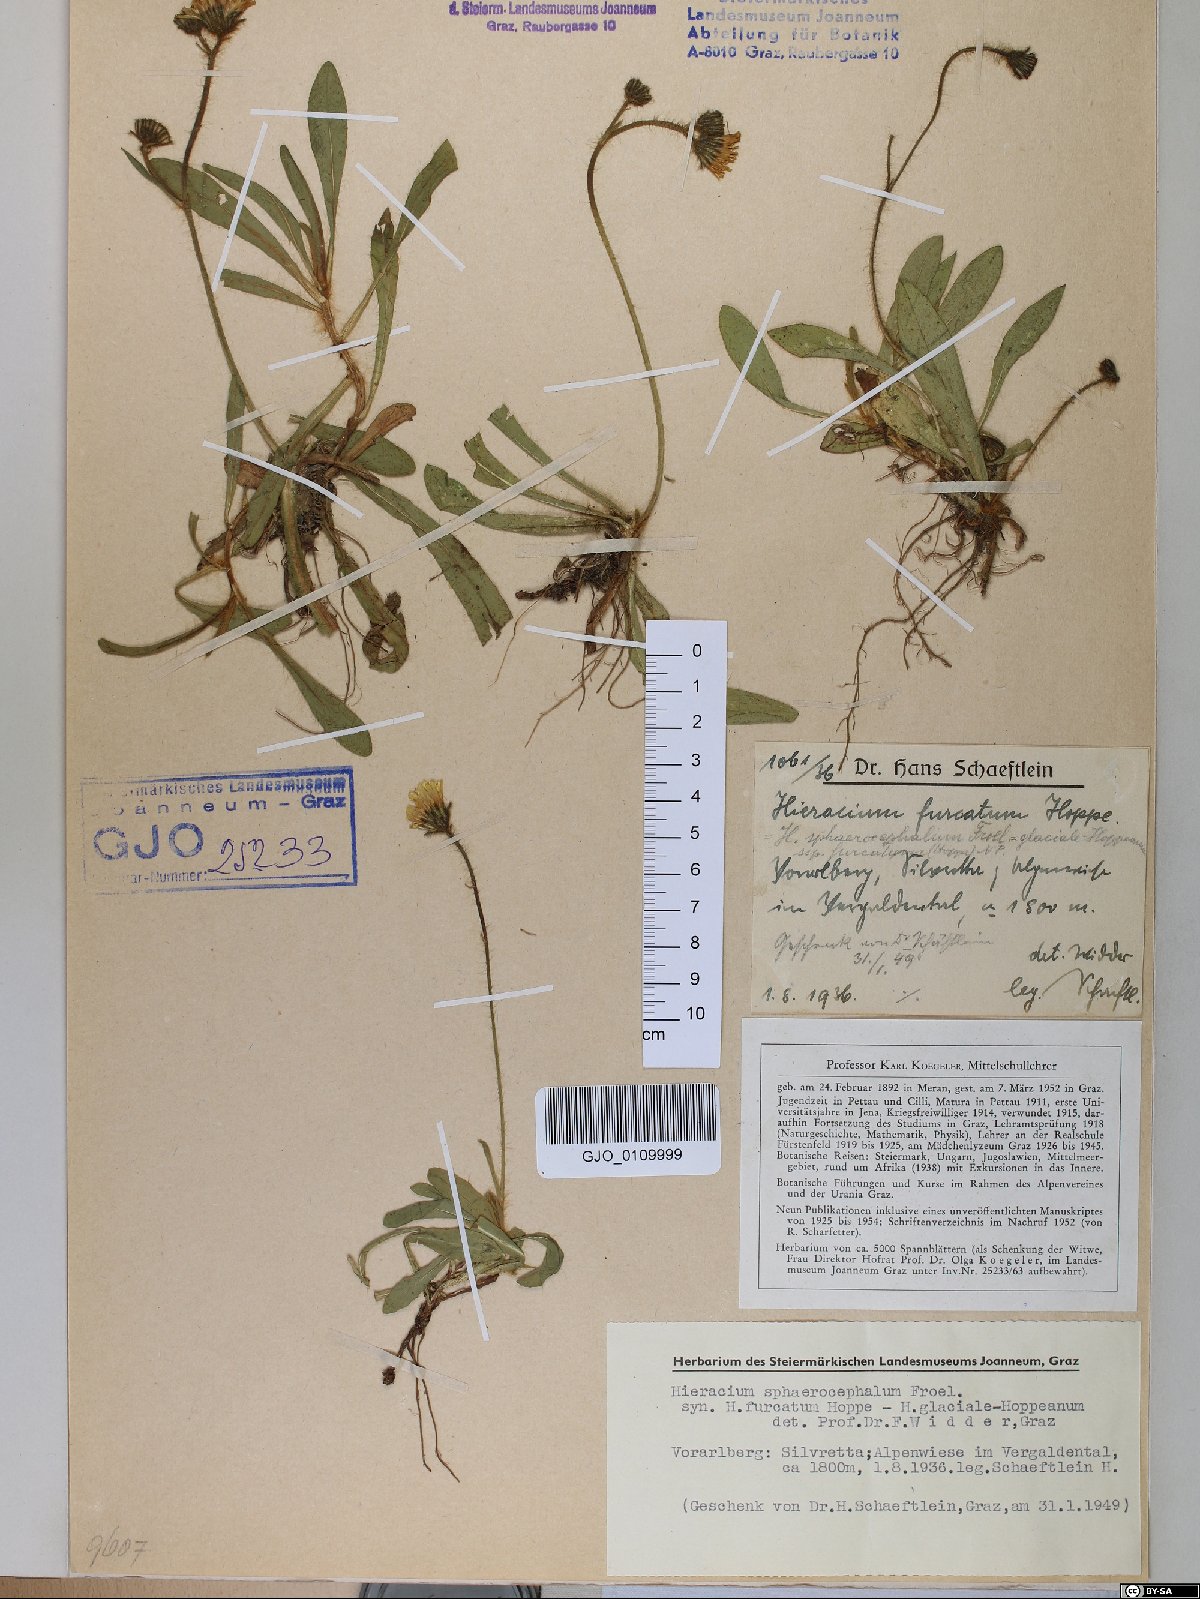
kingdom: Plantae
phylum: Tracheophyta
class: Magnoliopsida
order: Asterales
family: Asteraceae
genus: Pilosella
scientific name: Pilosella sphaerocephala
